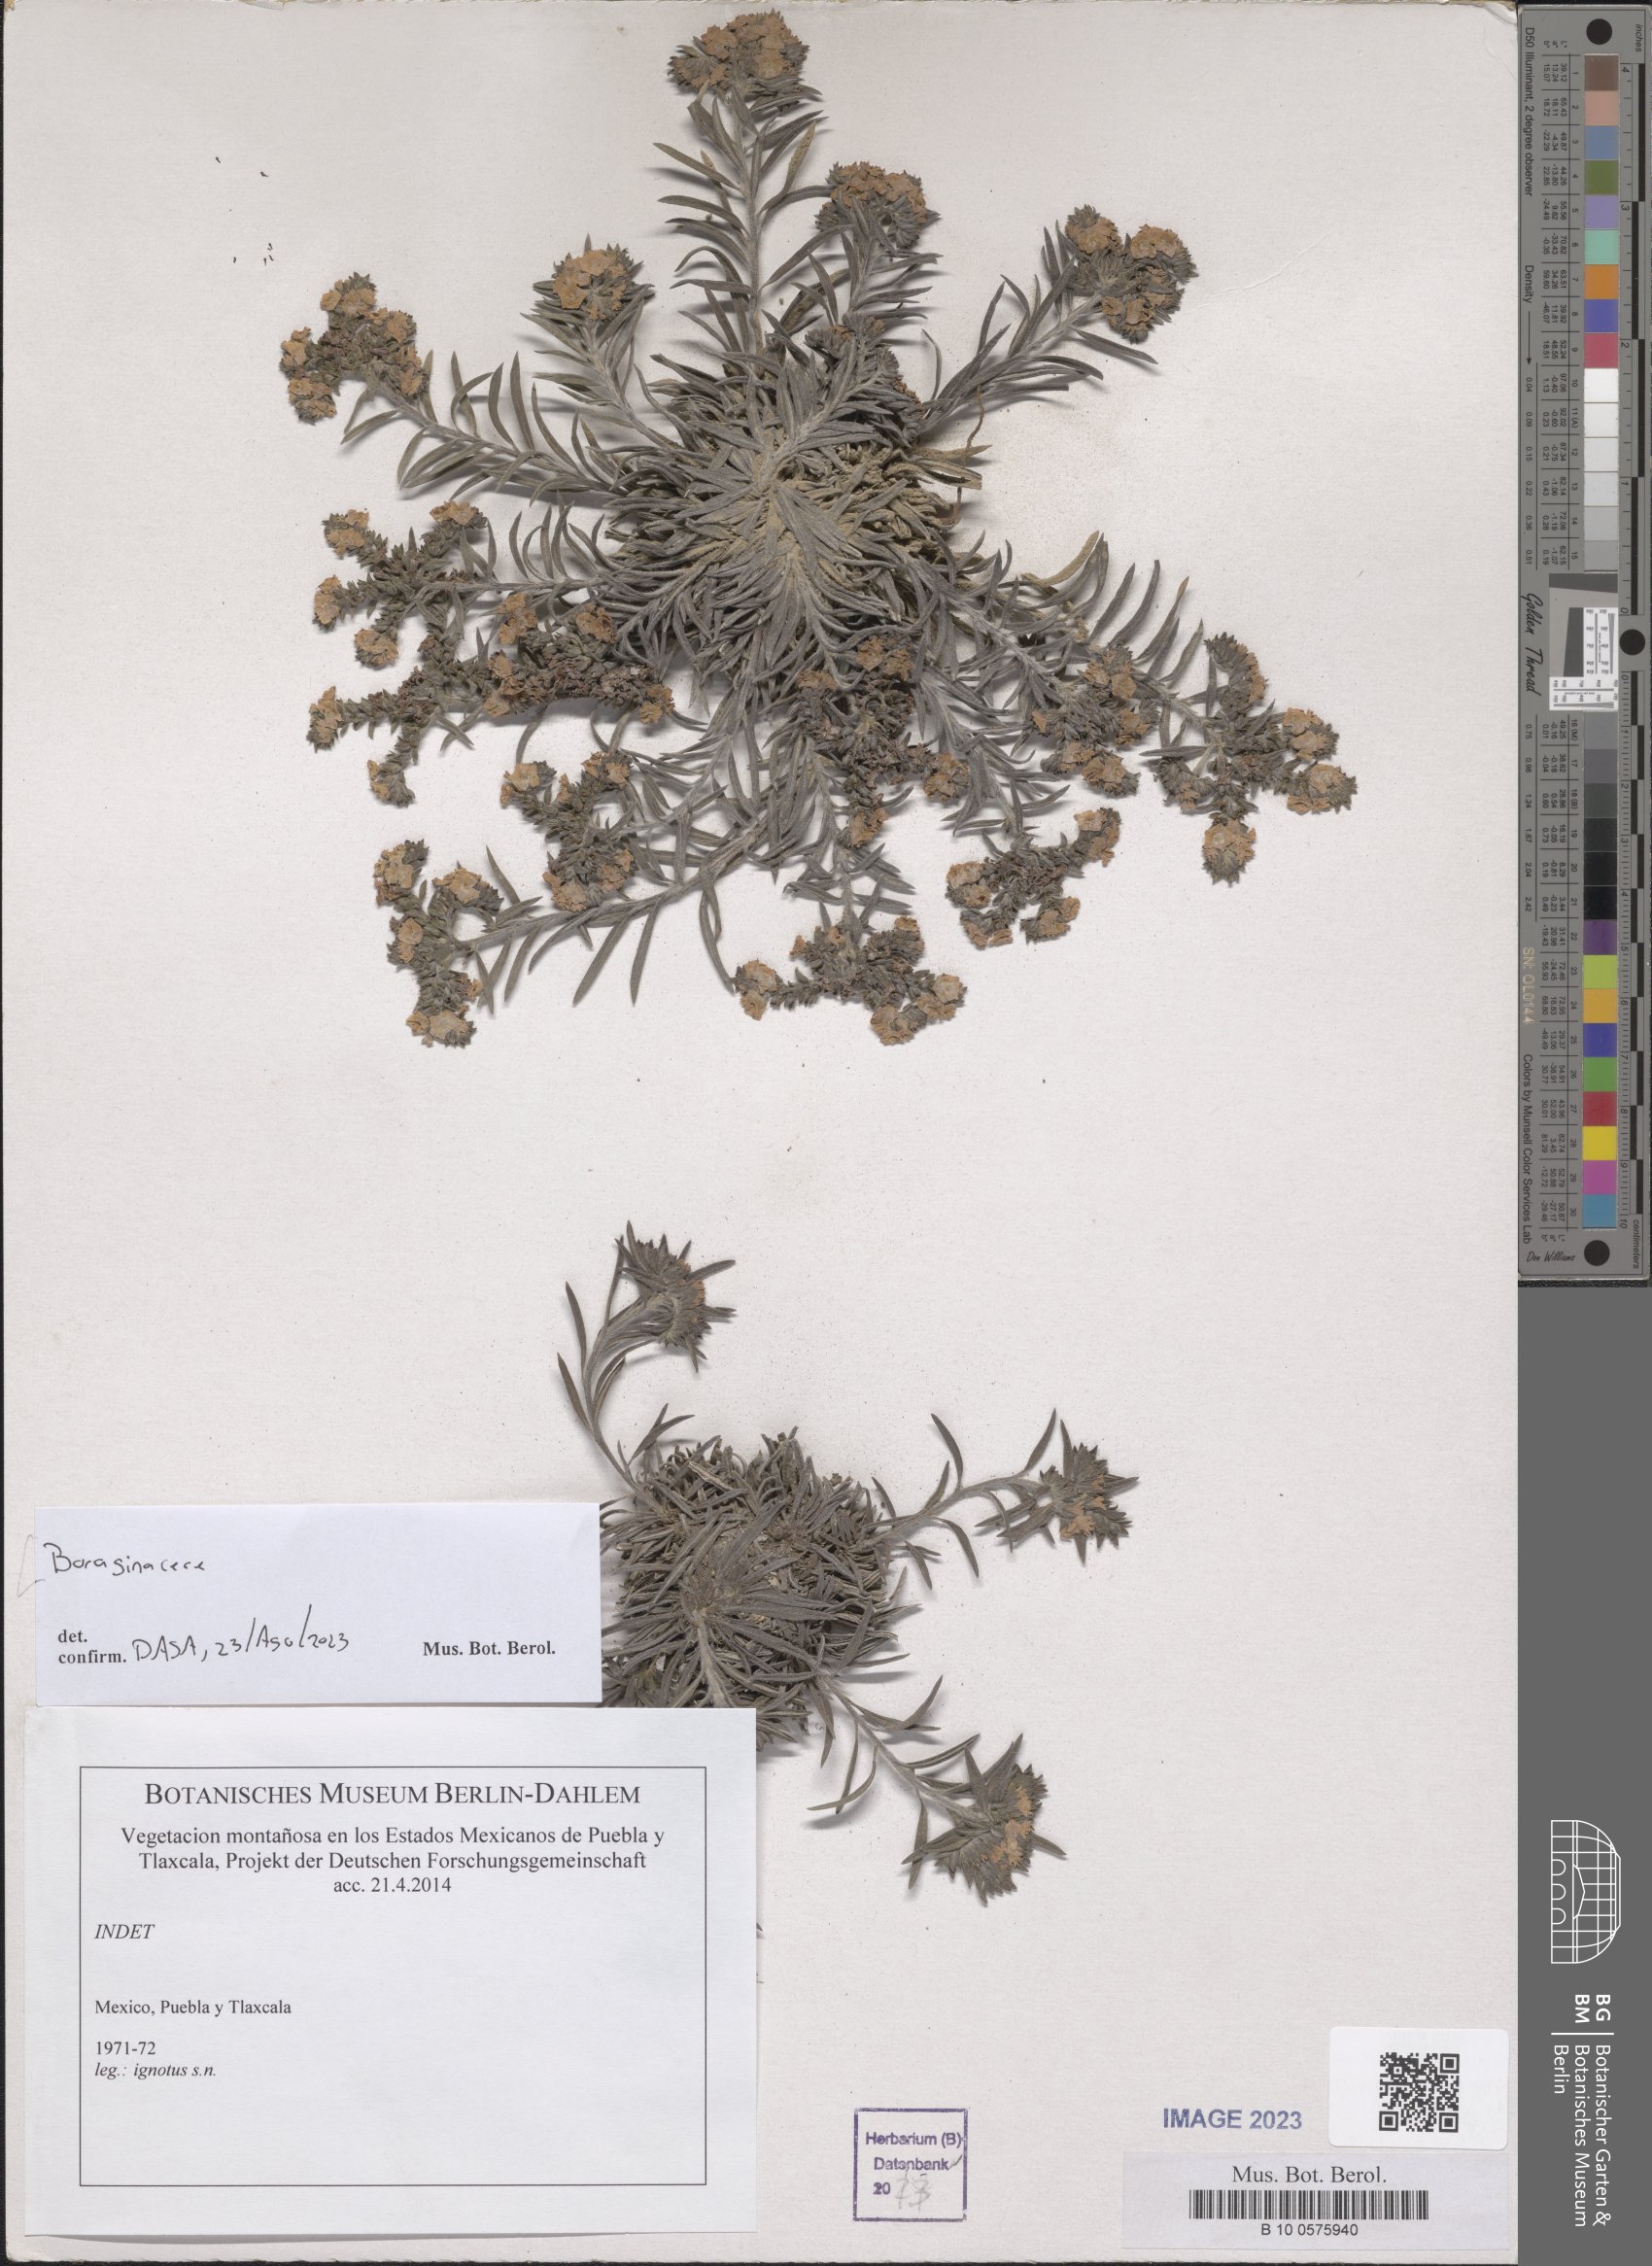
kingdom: Plantae
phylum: Tracheophyta
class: Magnoliopsida
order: Boraginales
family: Boraginaceae
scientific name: Boraginaceae
